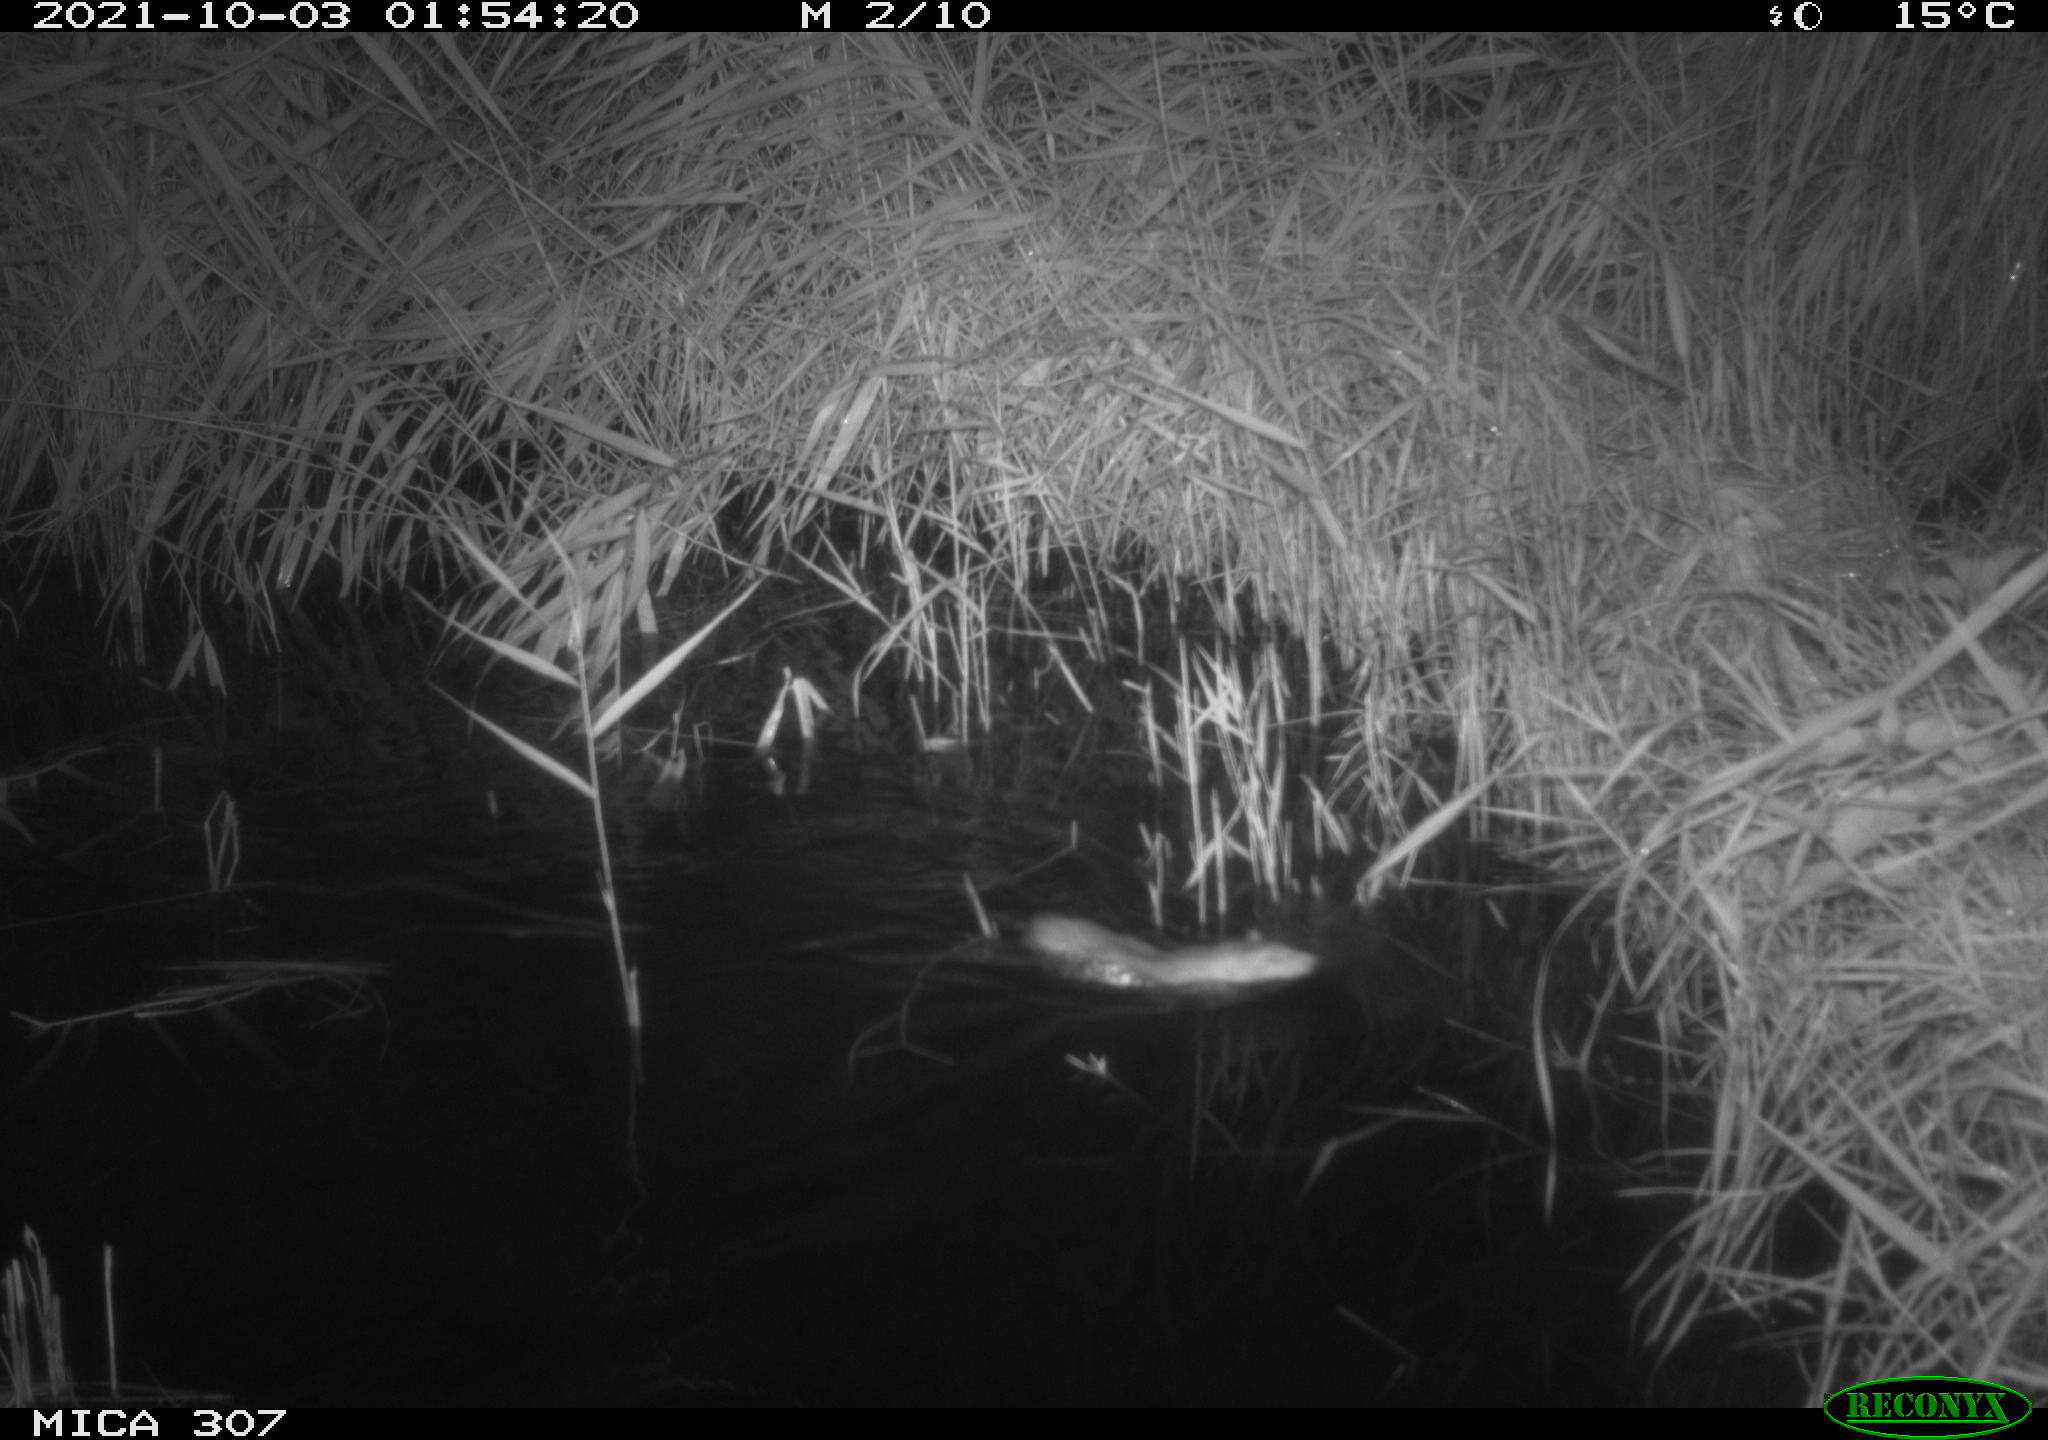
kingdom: Animalia
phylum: Chordata
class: Mammalia
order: Rodentia
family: Muridae
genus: Rattus
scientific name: Rattus norvegicus
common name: Brown rat
